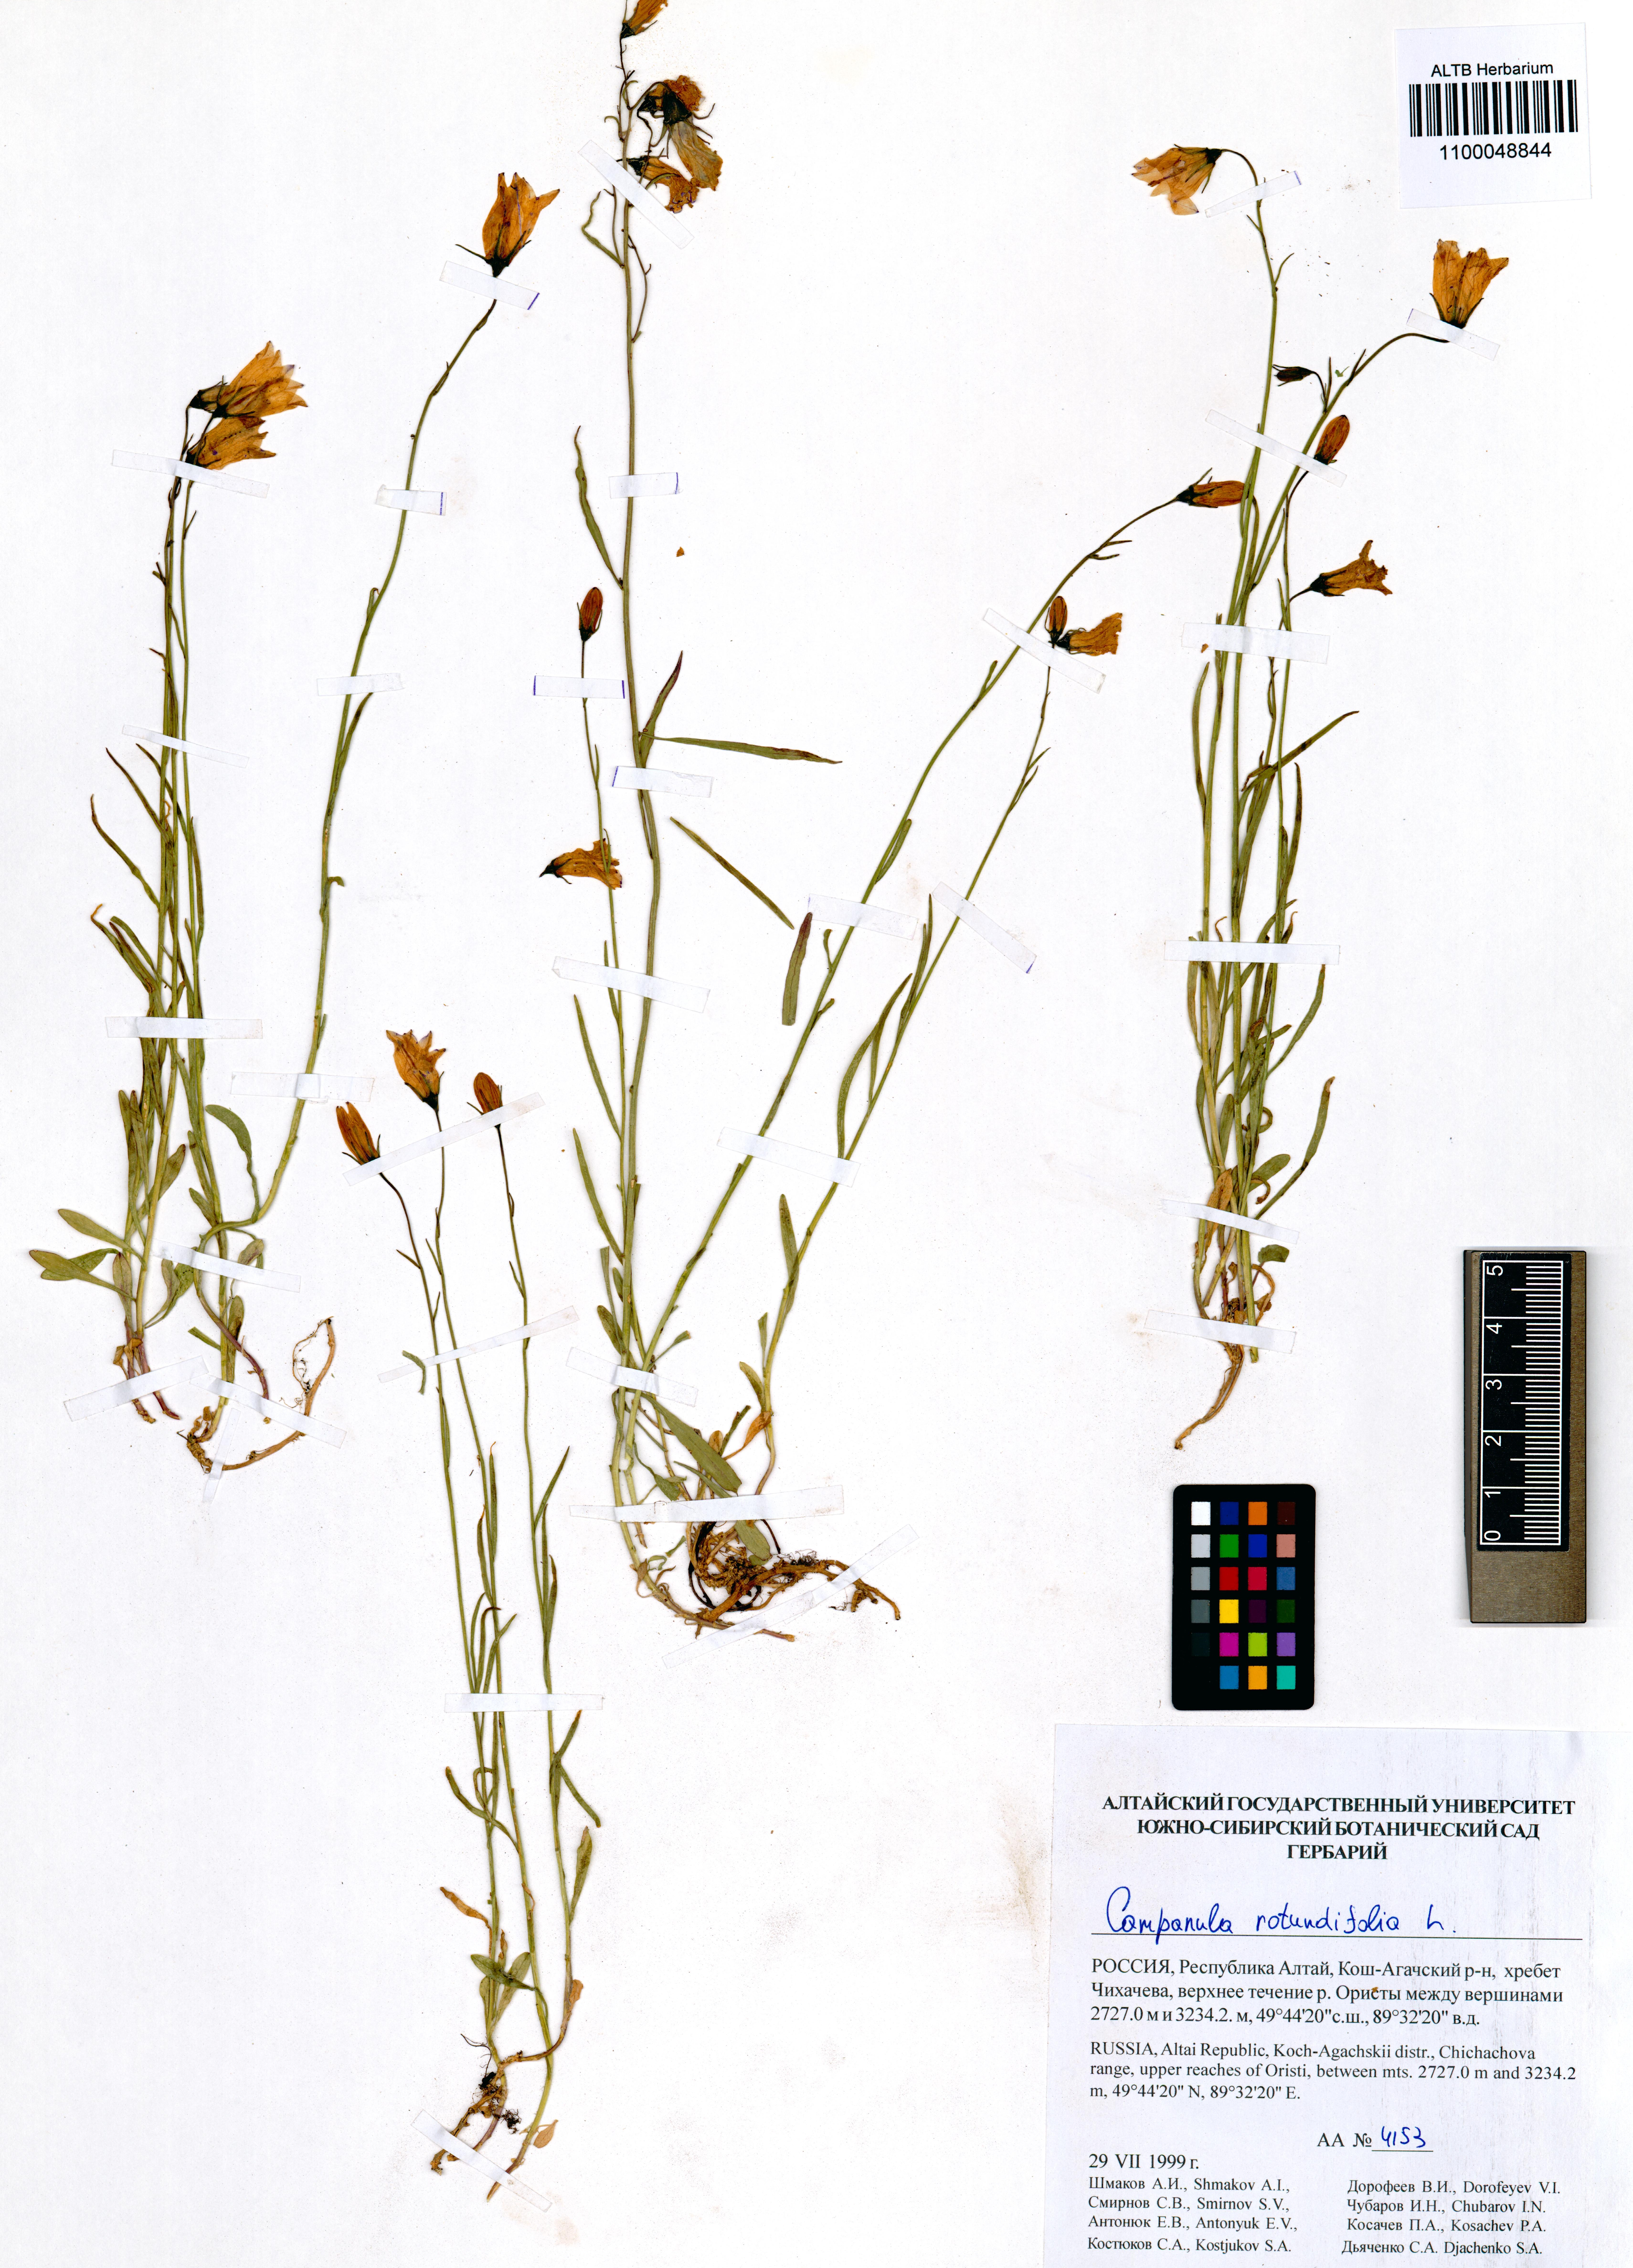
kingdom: Plantae
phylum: Tracheophyta
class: Magnoliopsida
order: Asterales
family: Campanulaceae
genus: Campanula
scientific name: Campanula rotundifolia
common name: Harebell
